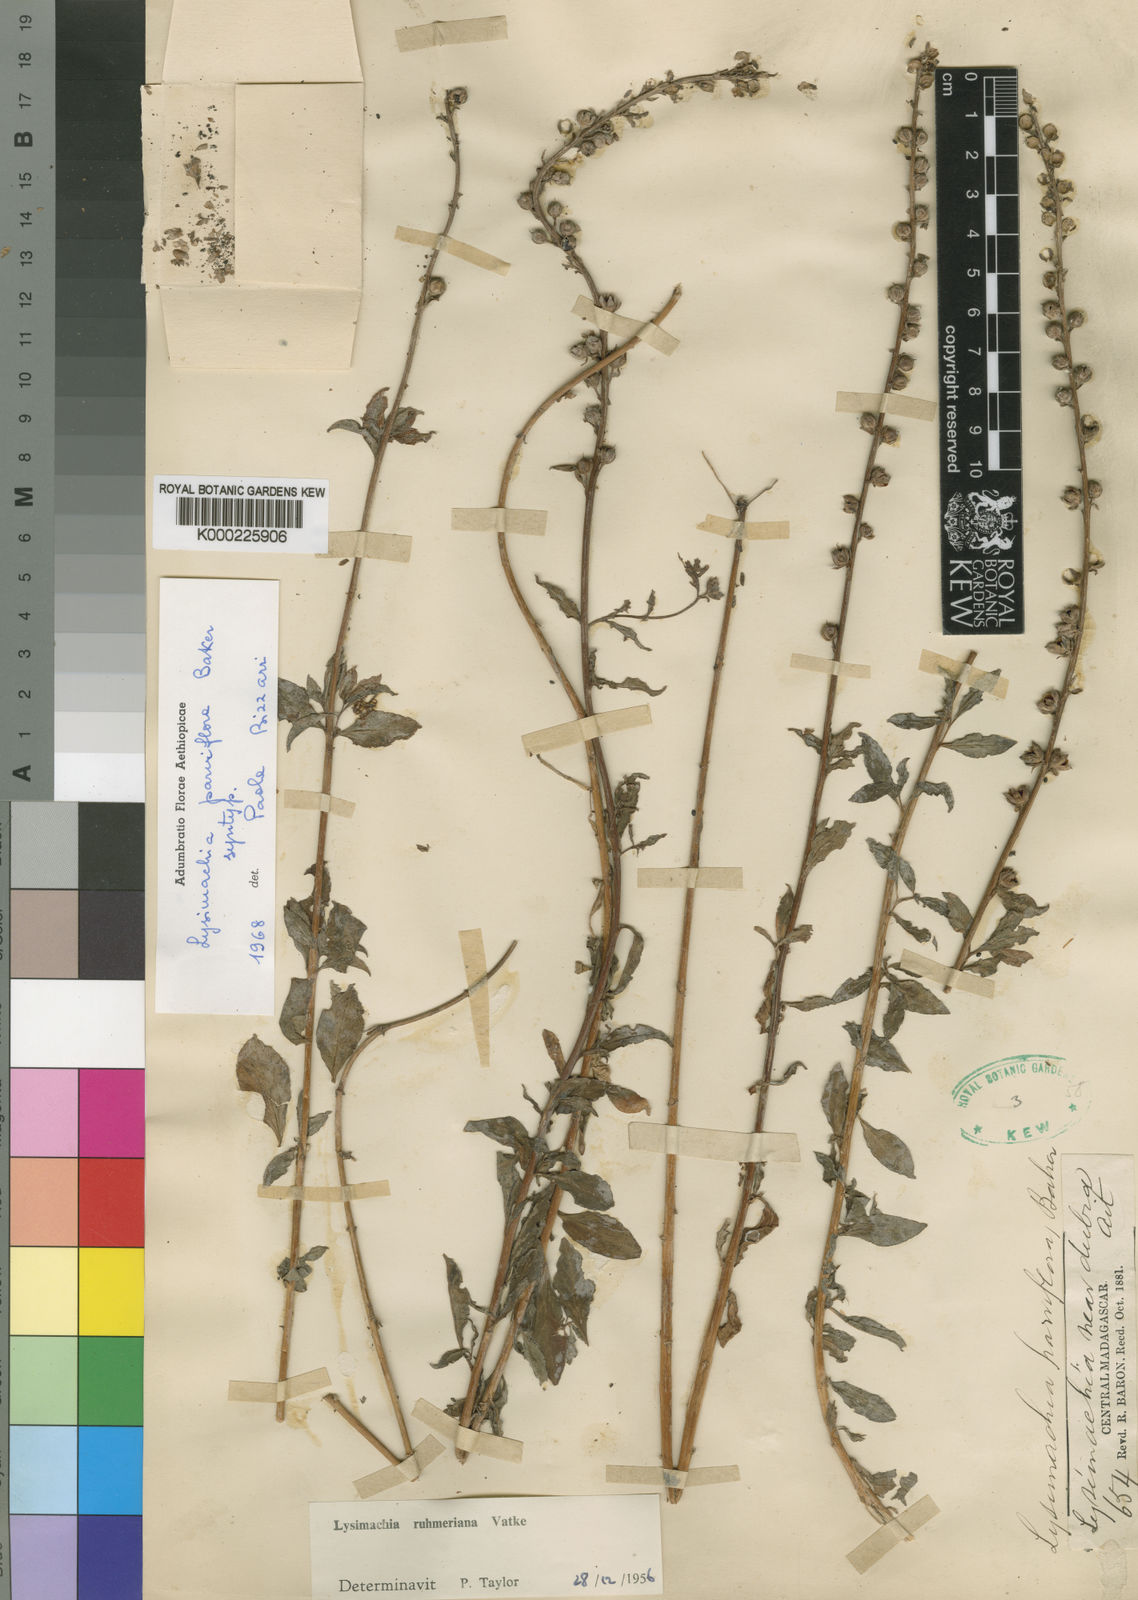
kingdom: Plantae
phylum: Tracheophyta
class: Magnoliopsida
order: Ericales
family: Primulaceae
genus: Lysimachia
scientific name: Lysimachia ruhmeriana
